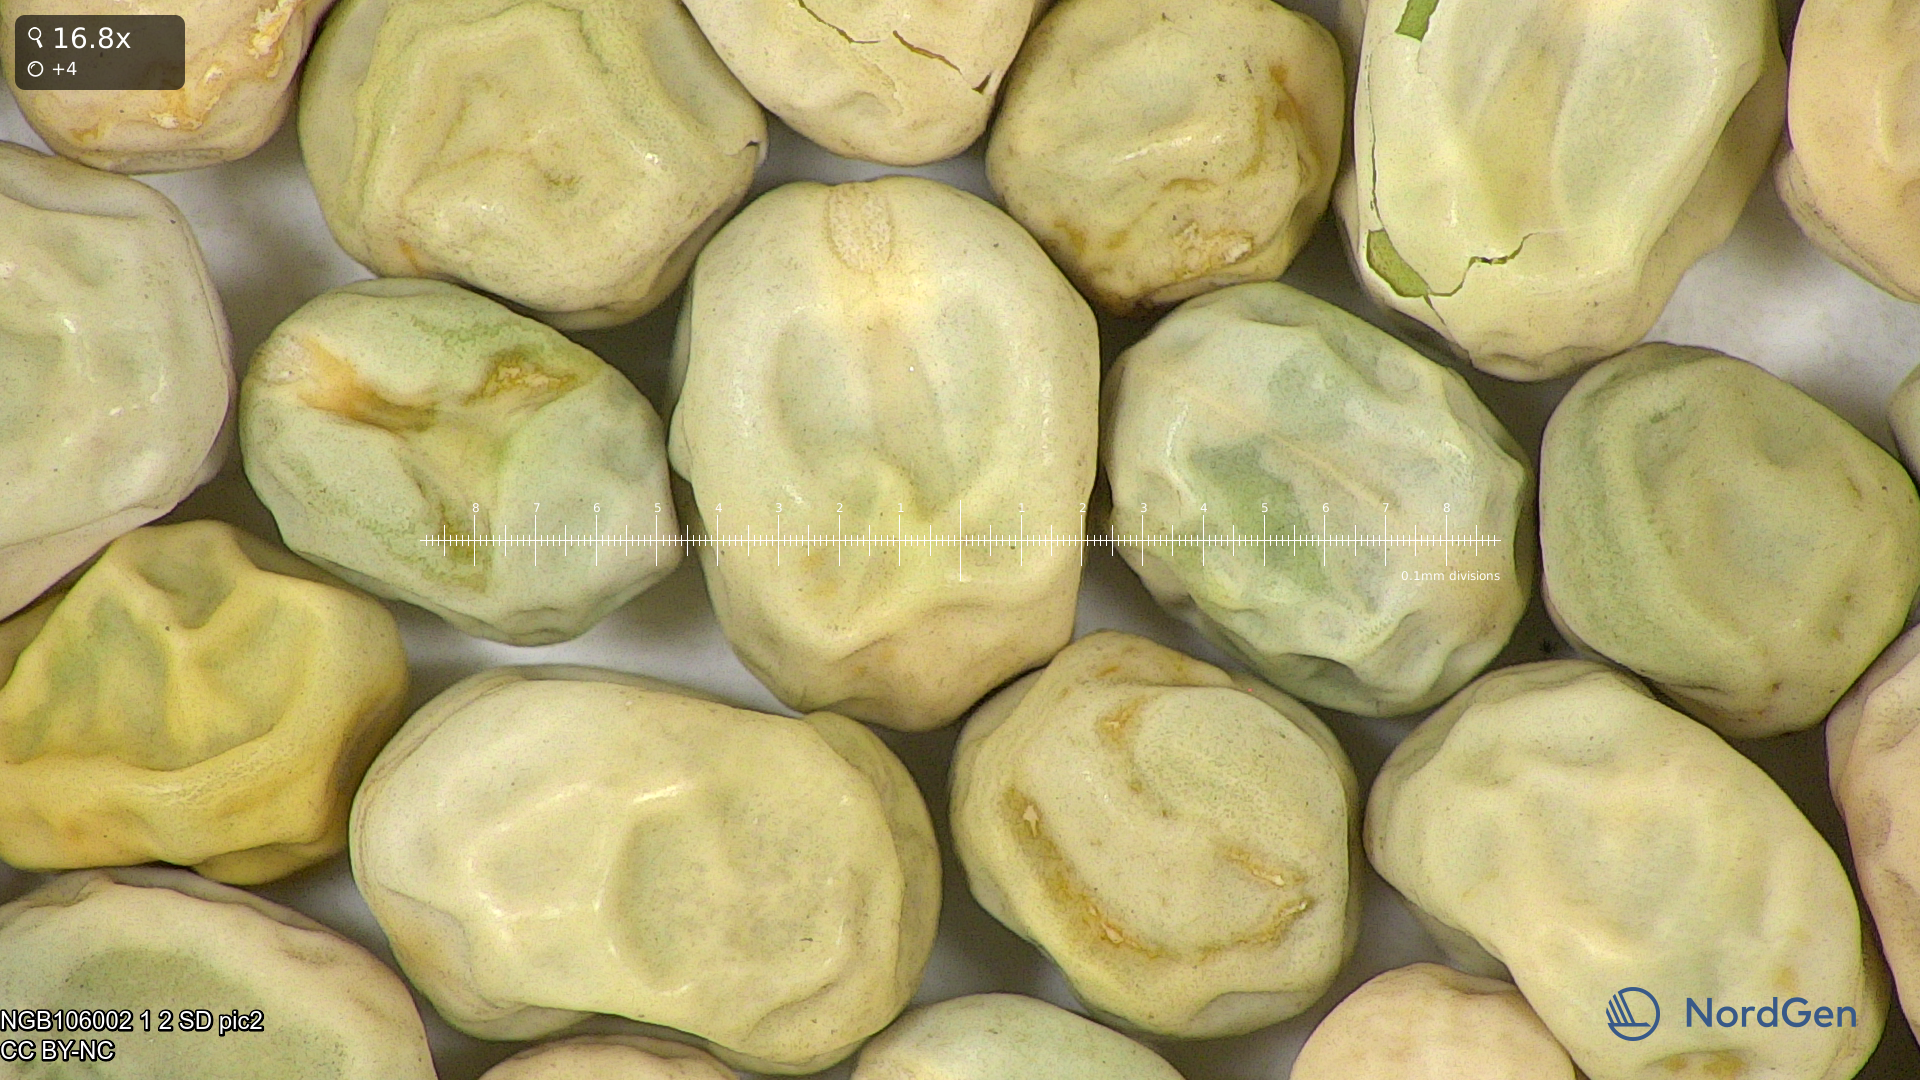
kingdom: Plantae
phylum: Tracheophyta
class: Magnoliopsida
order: Fabales
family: Fabaceae
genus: Lathyrus
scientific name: Lathyrus oleraceus
